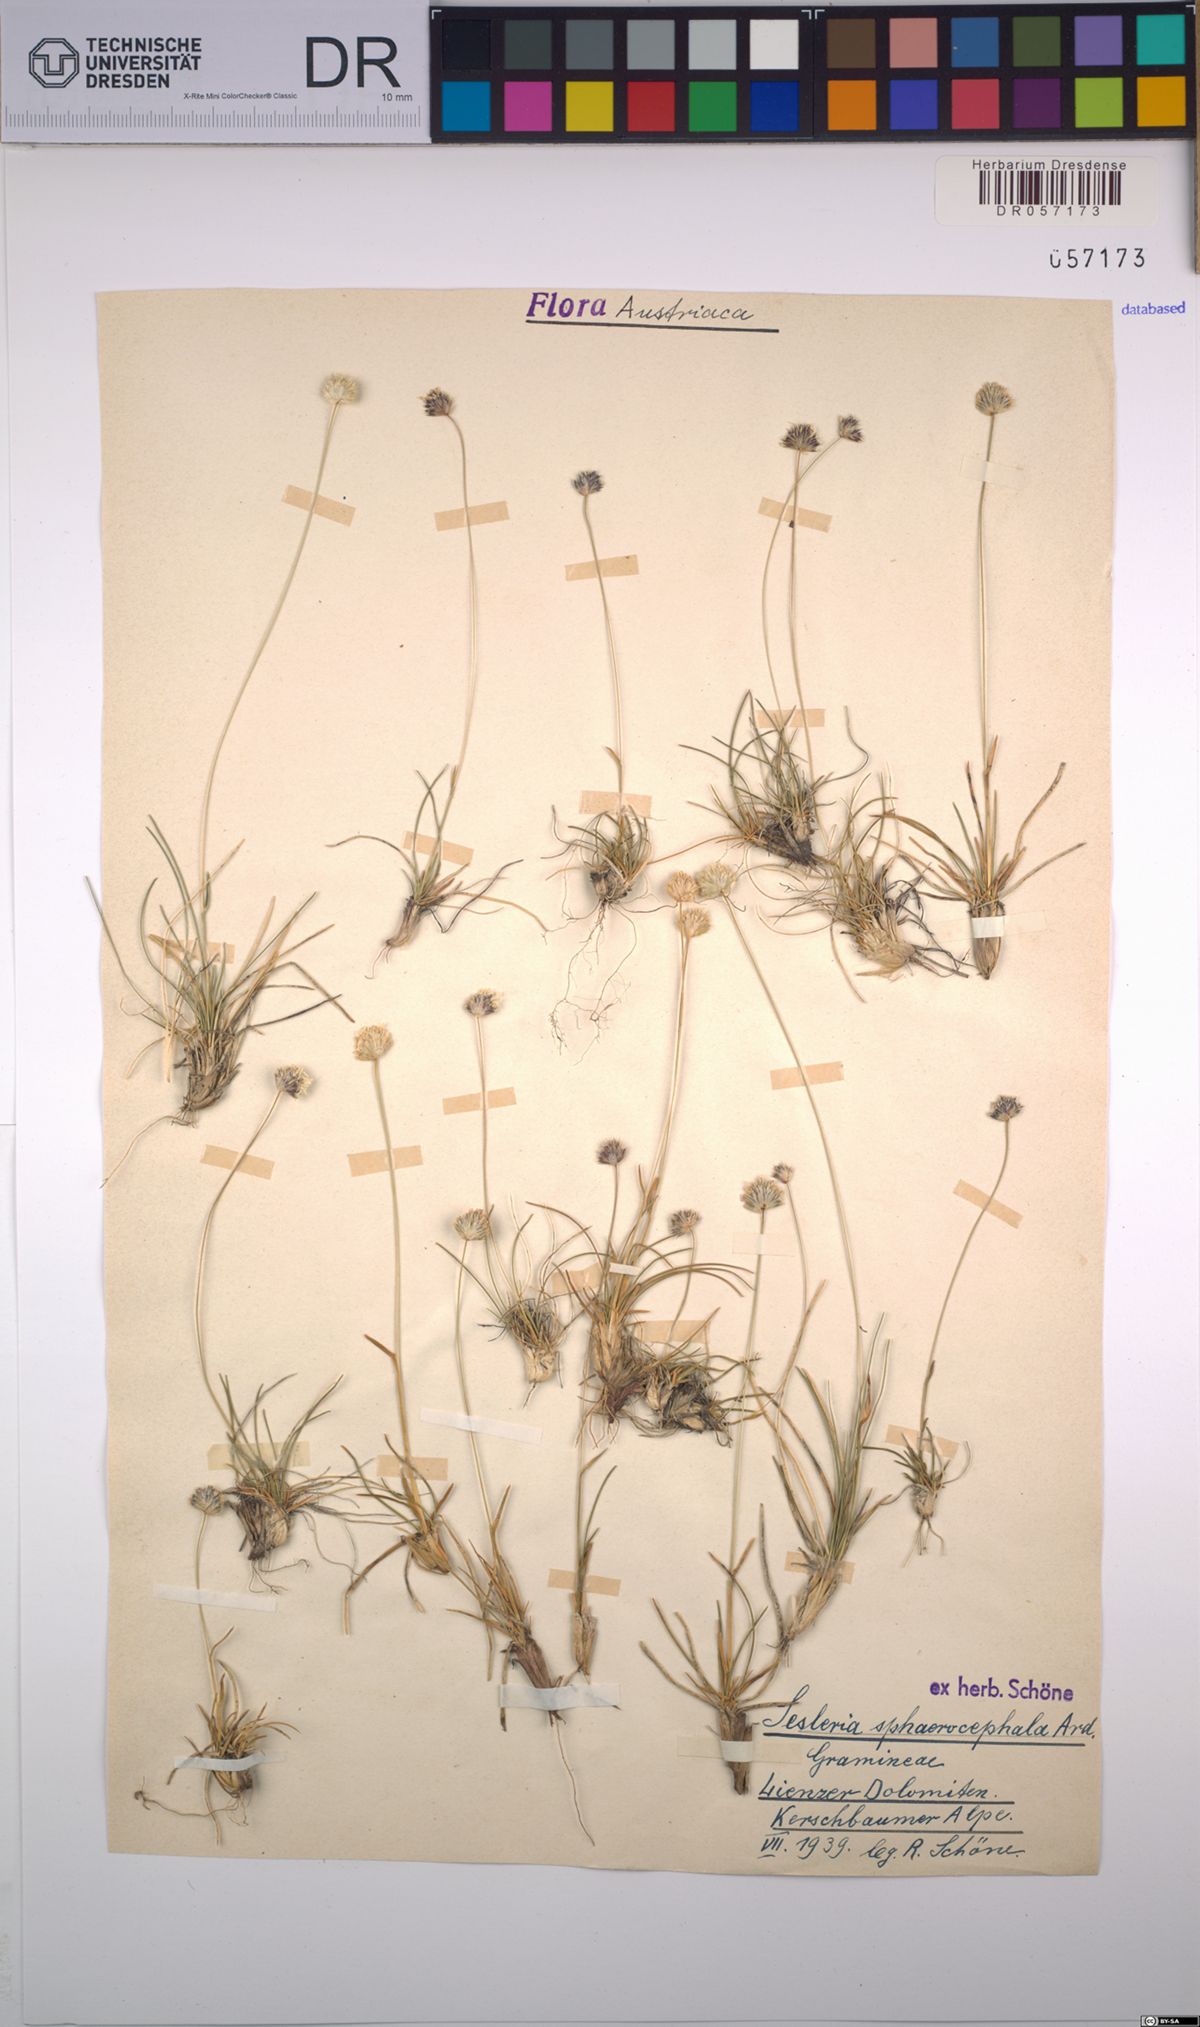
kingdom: Plantae
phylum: Tracheophyta
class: Liliopsida
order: Poales
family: Poaceae
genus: Sesleriella
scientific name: Sesleriella sphaerocephala
